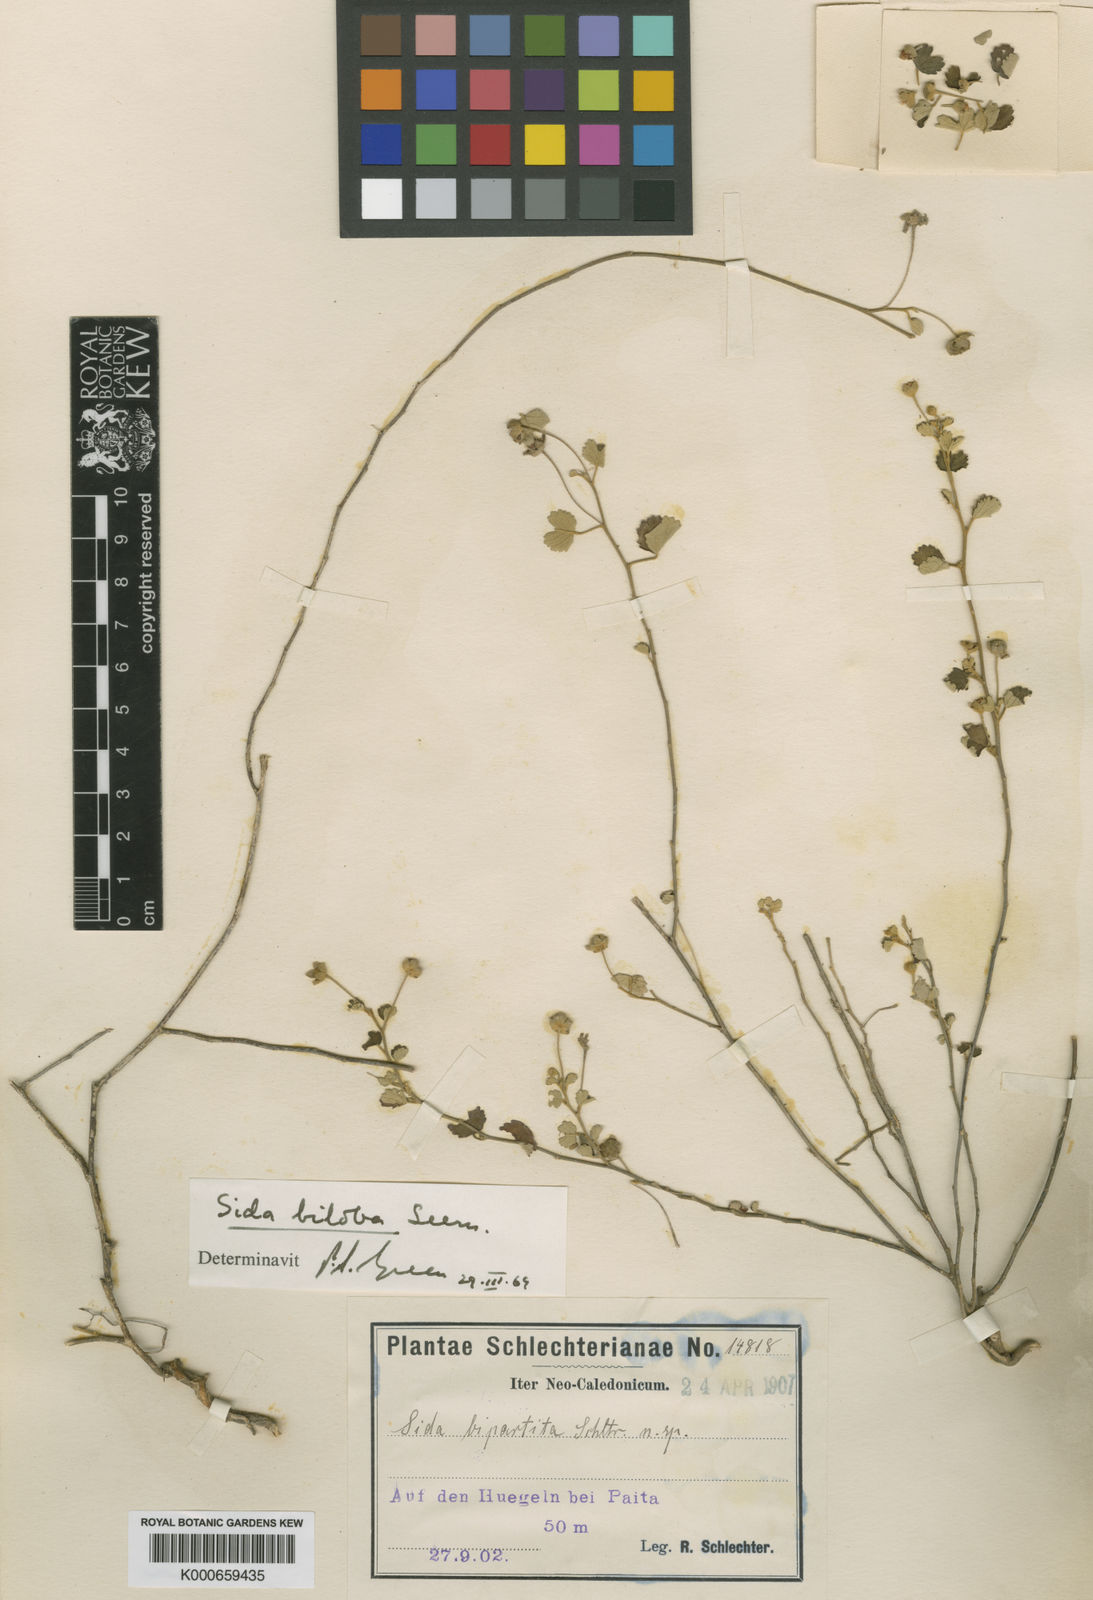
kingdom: Plantae
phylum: Tracheophyta
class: Magnoliopsida
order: Malvales
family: Malvaceae
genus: Sida
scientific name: Sida
